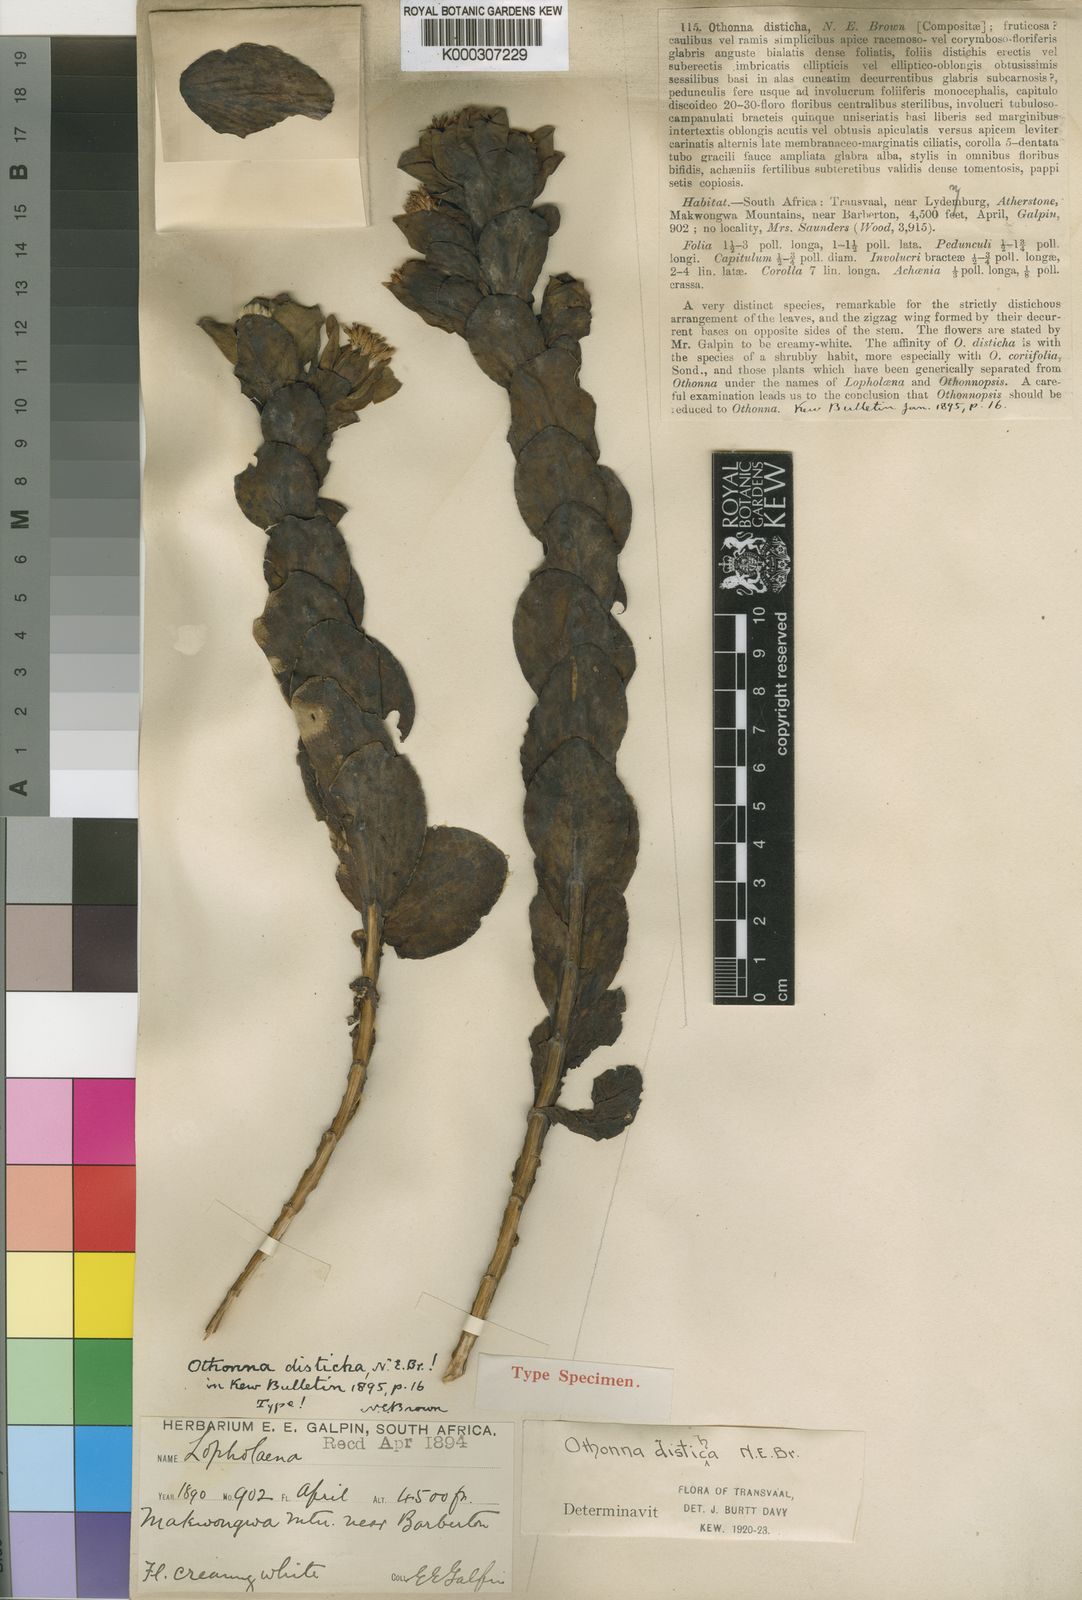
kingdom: Plantae
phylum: Tracheophyta
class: Magnoliopsida
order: Asterales
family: Asteraceae
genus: Lopholaena
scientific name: Lopholaena disticha
